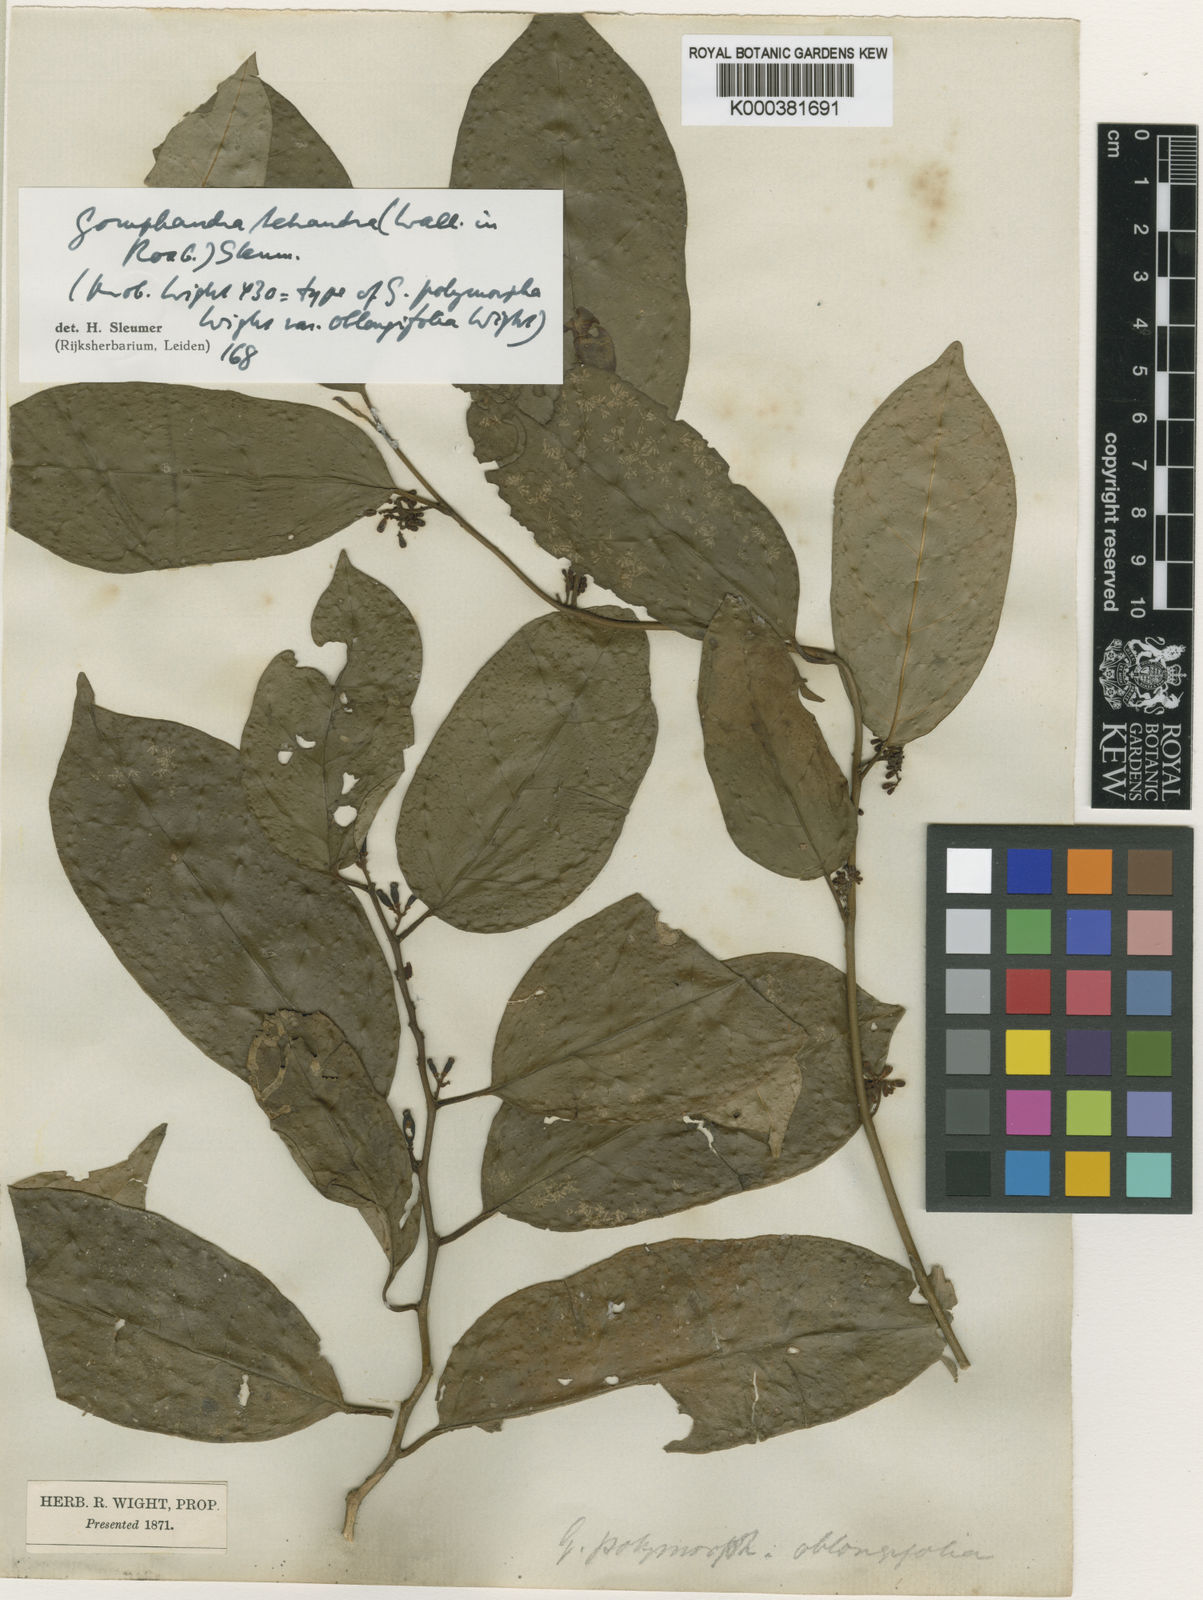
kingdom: Plantae
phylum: Tracheophyta
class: Magnoliopsida
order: Cardiopteridales
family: Stemonuraceae
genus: Gomphandra
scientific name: Gomphandra
